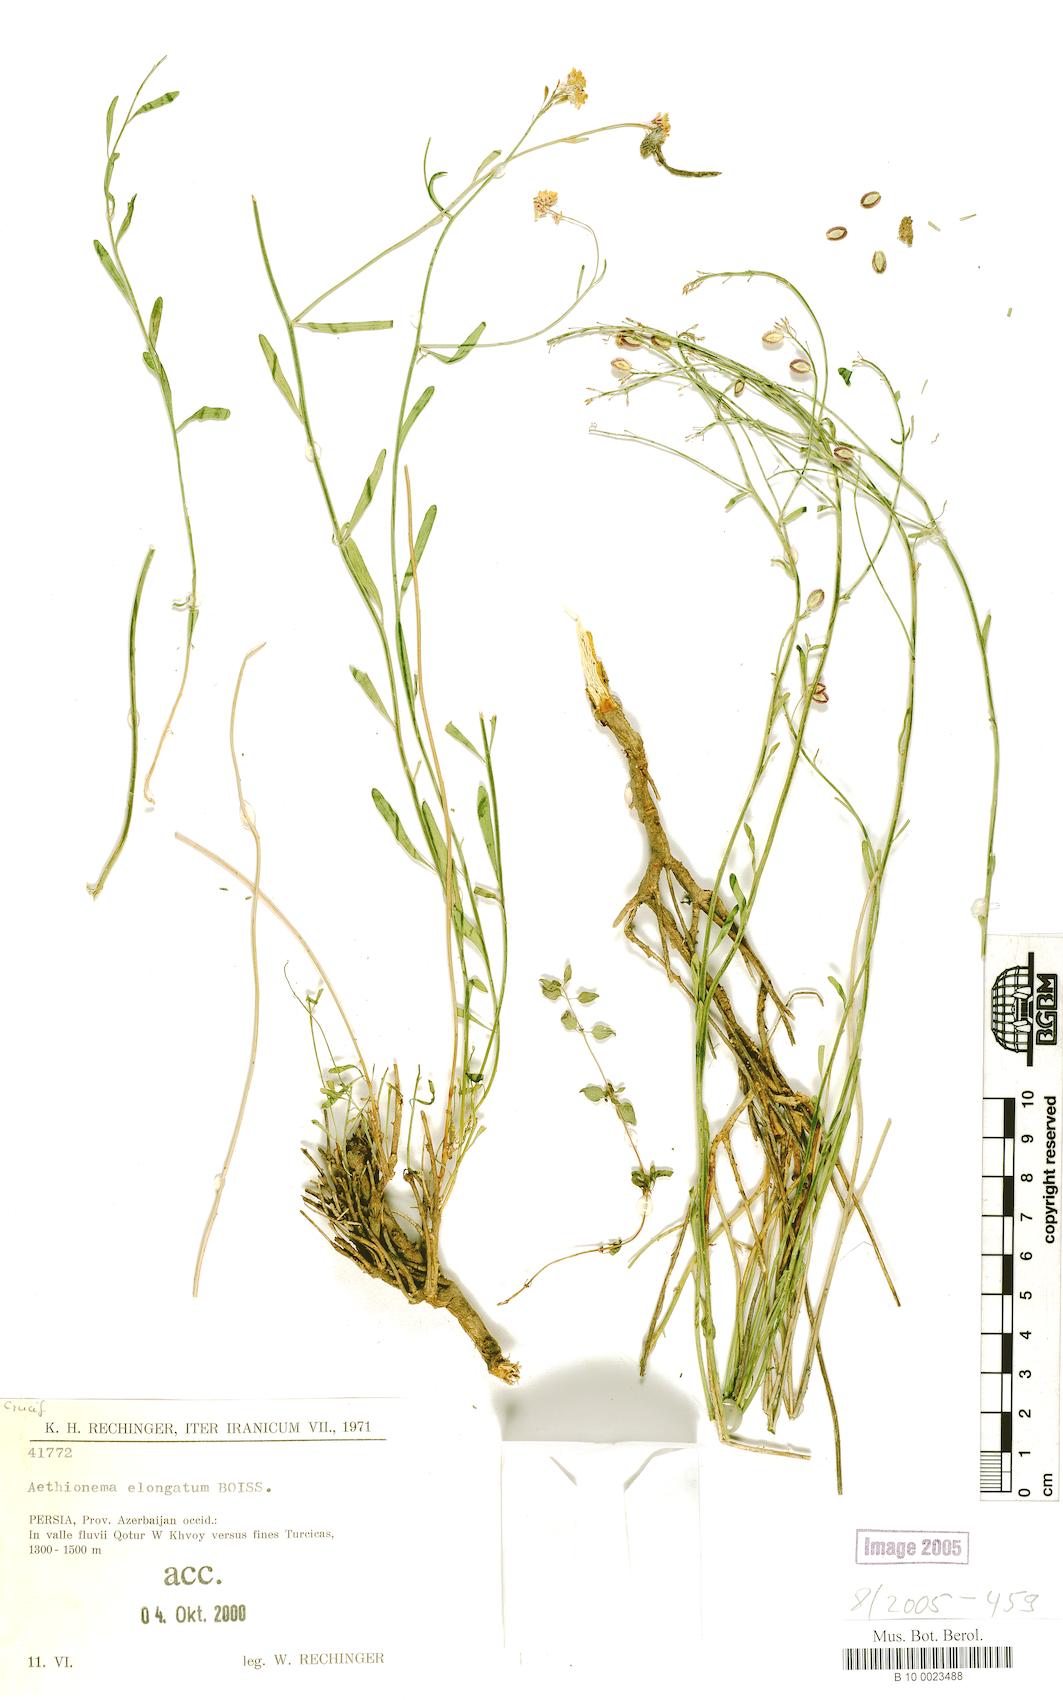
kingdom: Plantae
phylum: Tracheophyta
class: Magnoliopsida
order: Brassicales
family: Brassicaceae
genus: Aethionema
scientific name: Aethionema virgatum
